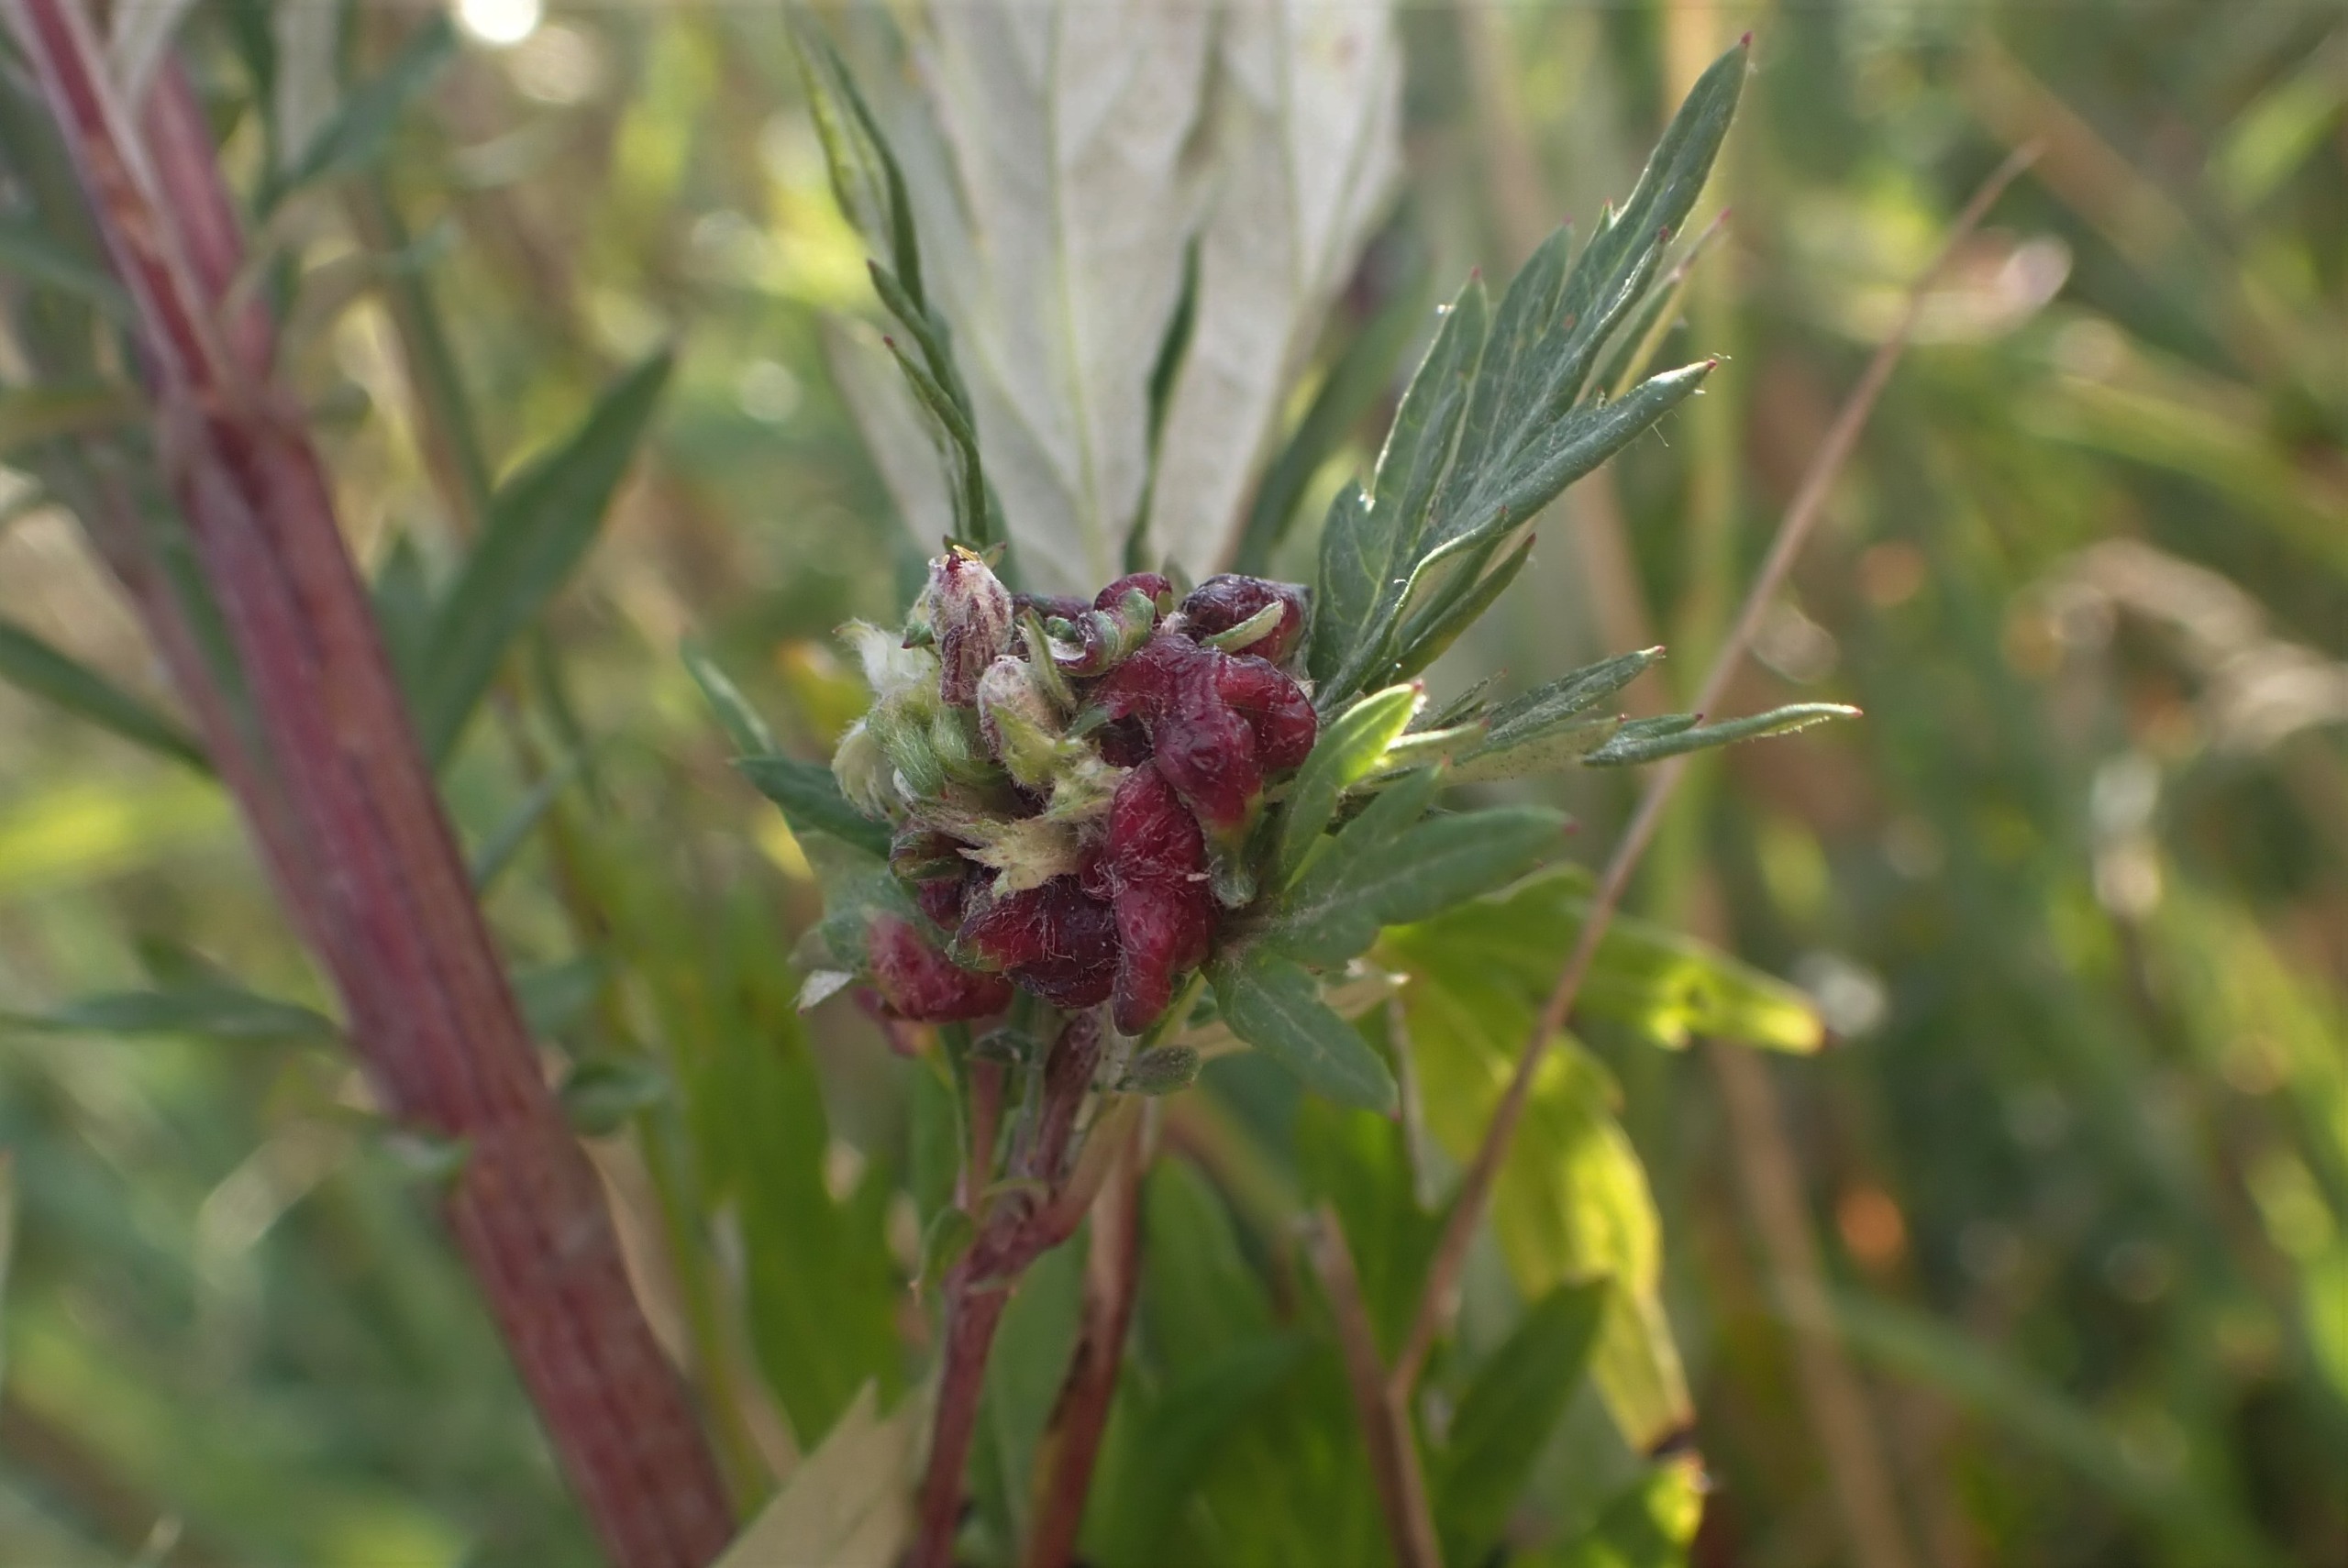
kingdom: Animalia
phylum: Arthropoda
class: Insecta
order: Hemiptera
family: Aphididae
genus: Cryptosiphum
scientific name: Cryptosiphum artemisiae
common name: Bynkegallelus
